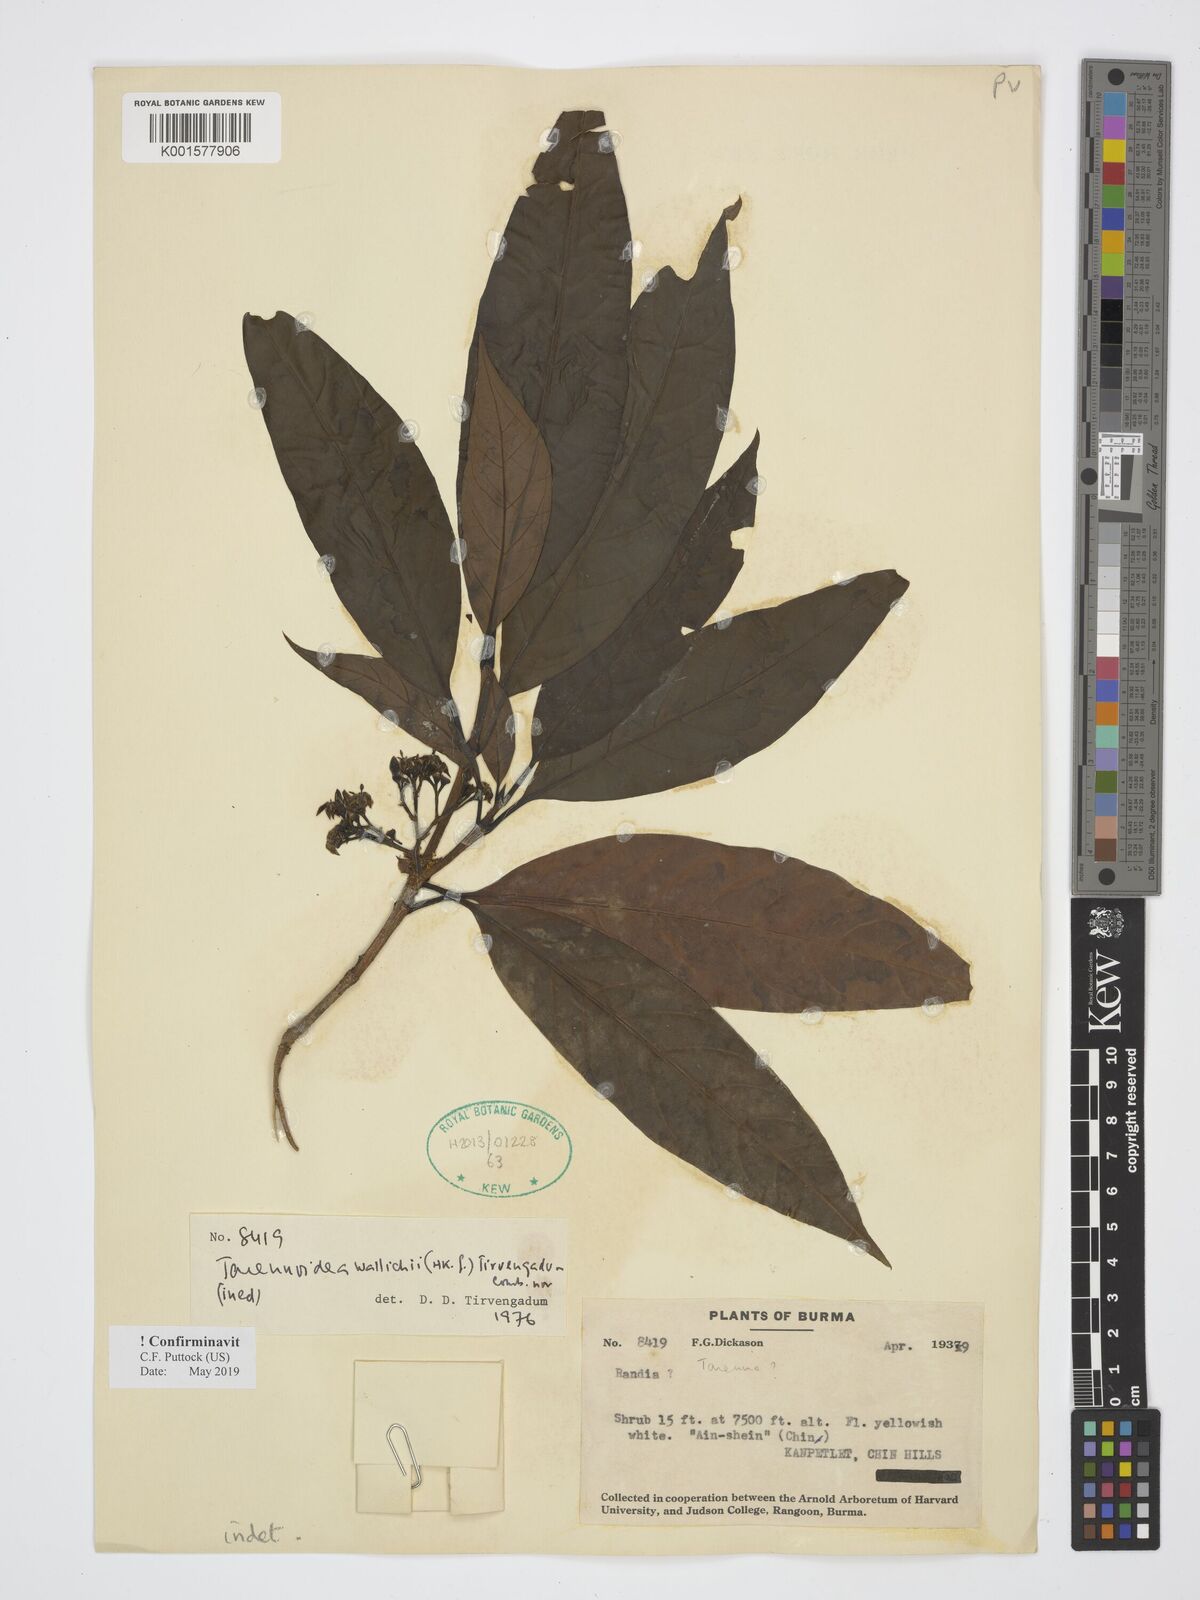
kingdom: Plantae
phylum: Tracheophyta
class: Magnoliopsida
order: Gentianales
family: Rubiaceae
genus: Tarennoidea
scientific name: Tarennoidea wallichii
